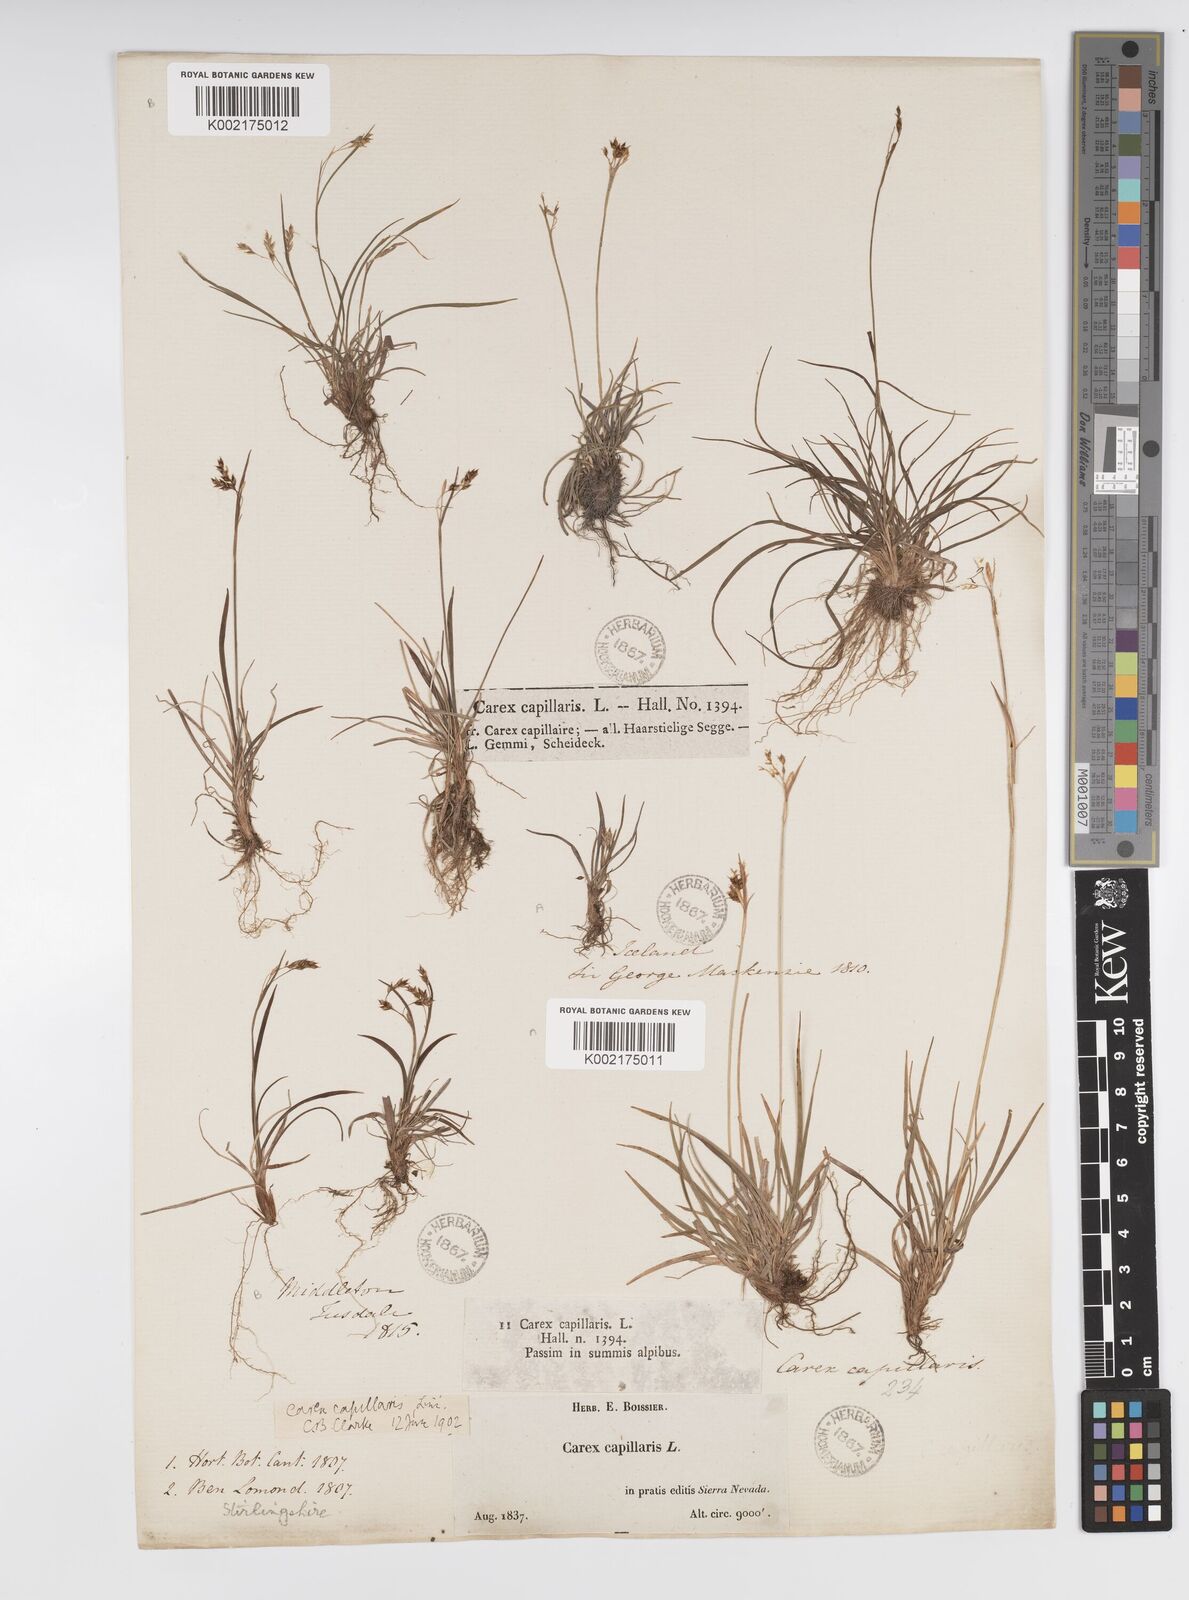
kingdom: Plantae
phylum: Tracheophyta
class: Liliopsida
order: Poales
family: Cyperaceae
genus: Carex
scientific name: Carex capillaris
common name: Hair sedge
